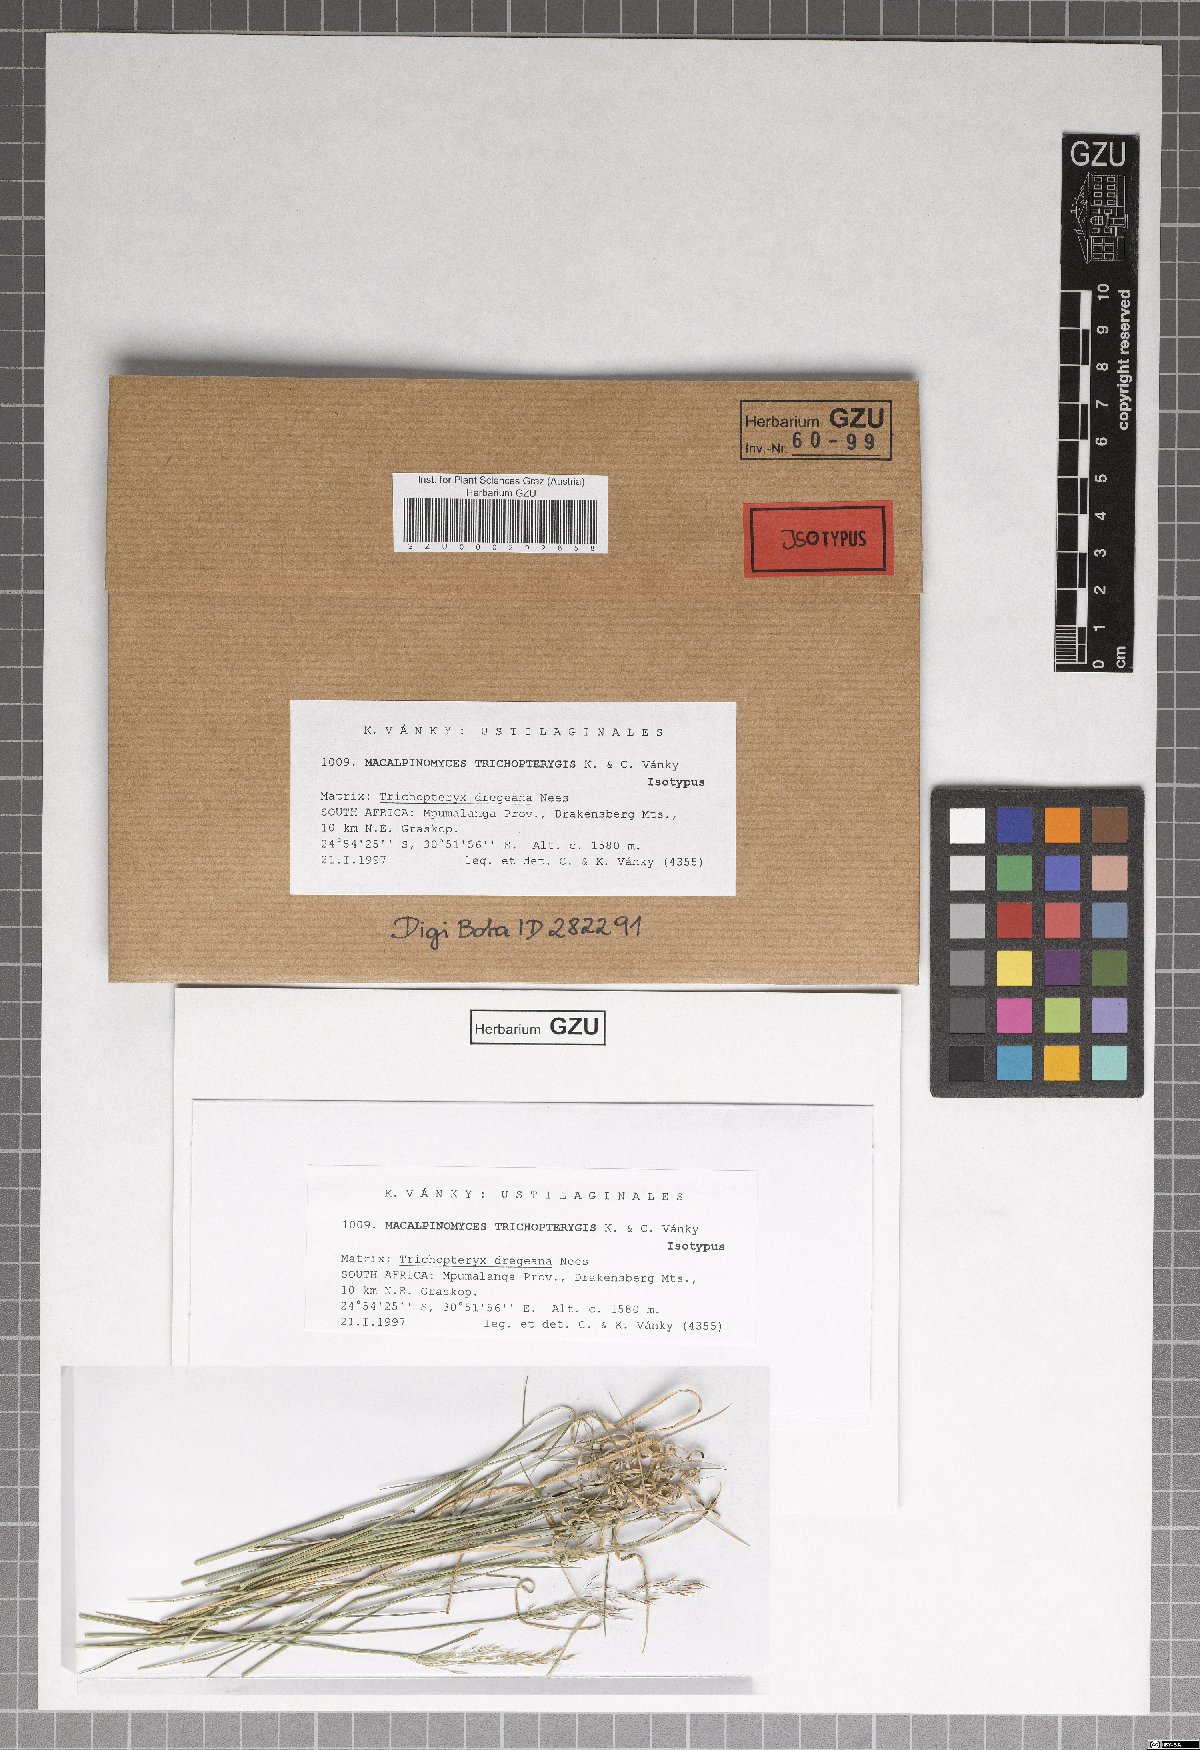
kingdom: Fungi
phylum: Basidiomycota
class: Ustilaginomycetes
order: Ustilaginales
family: Ustilaginaceae
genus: Macalpinomyces
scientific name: Macalpinomyces trichopterygis
